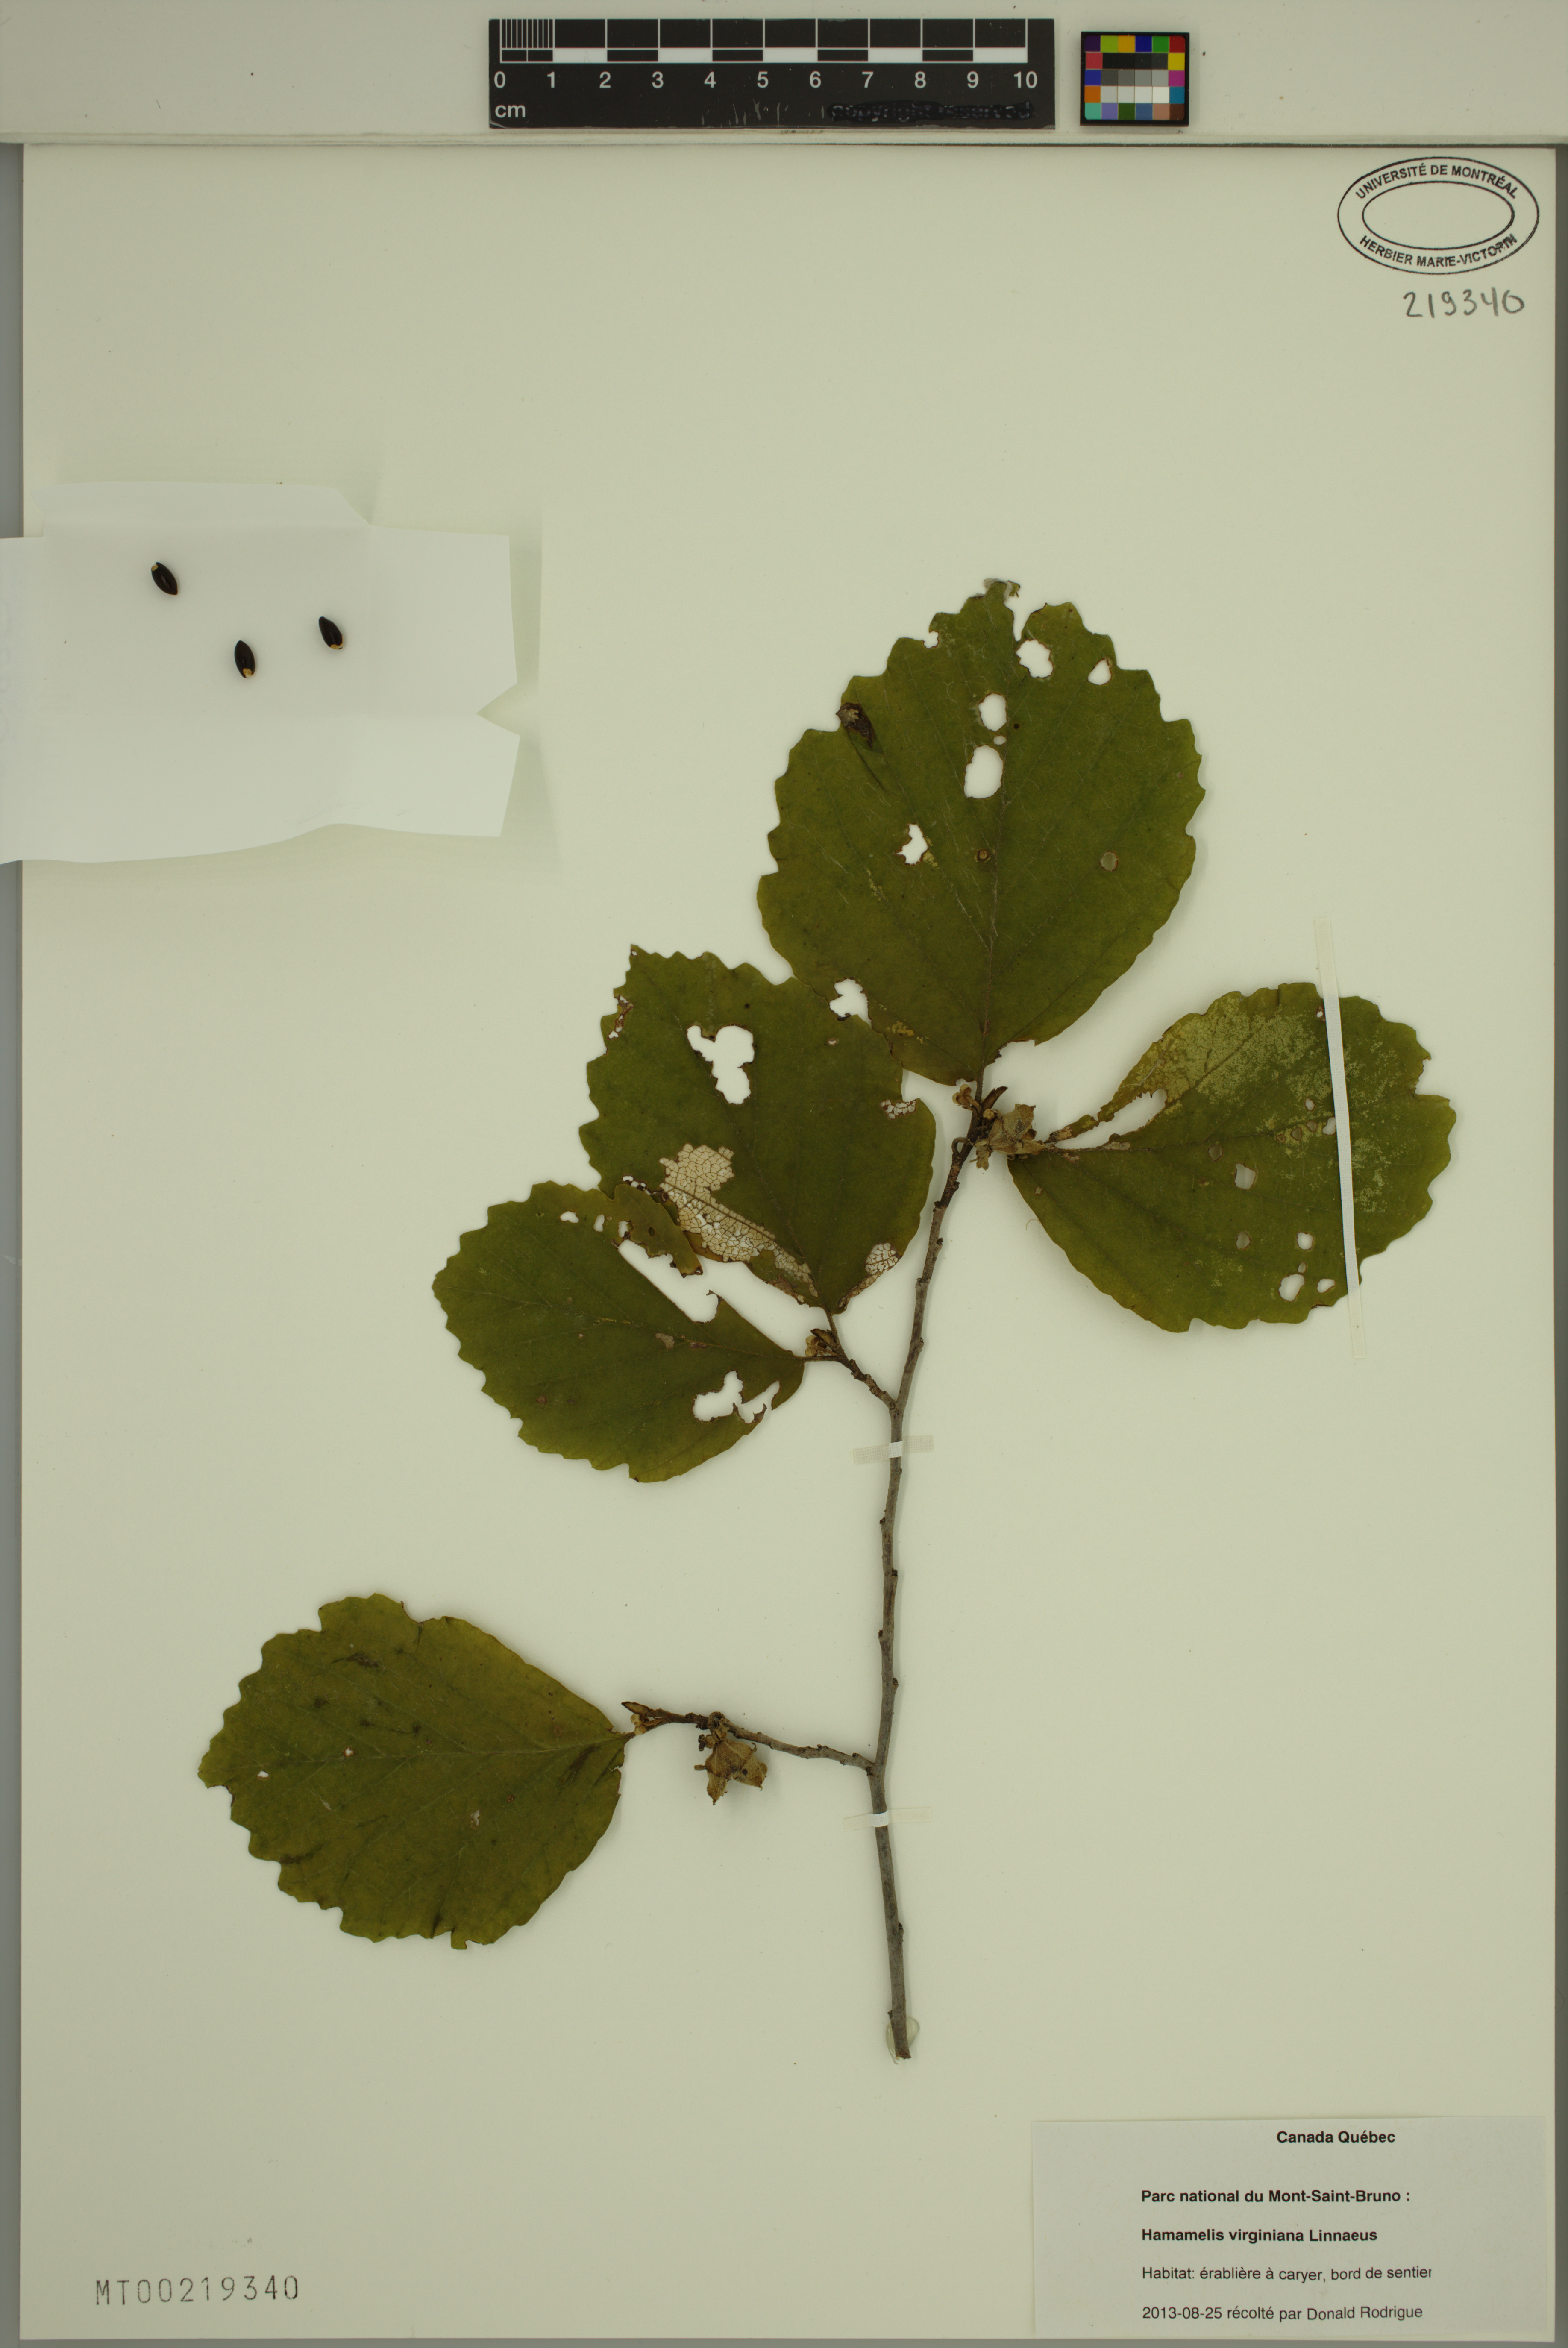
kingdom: Plantae
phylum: Tracheophyta
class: Magnoliopsida
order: Saxifragales
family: Hamamelidaceae
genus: Hamamelis
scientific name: Hamamelis virginiana
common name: Witch-hazel
